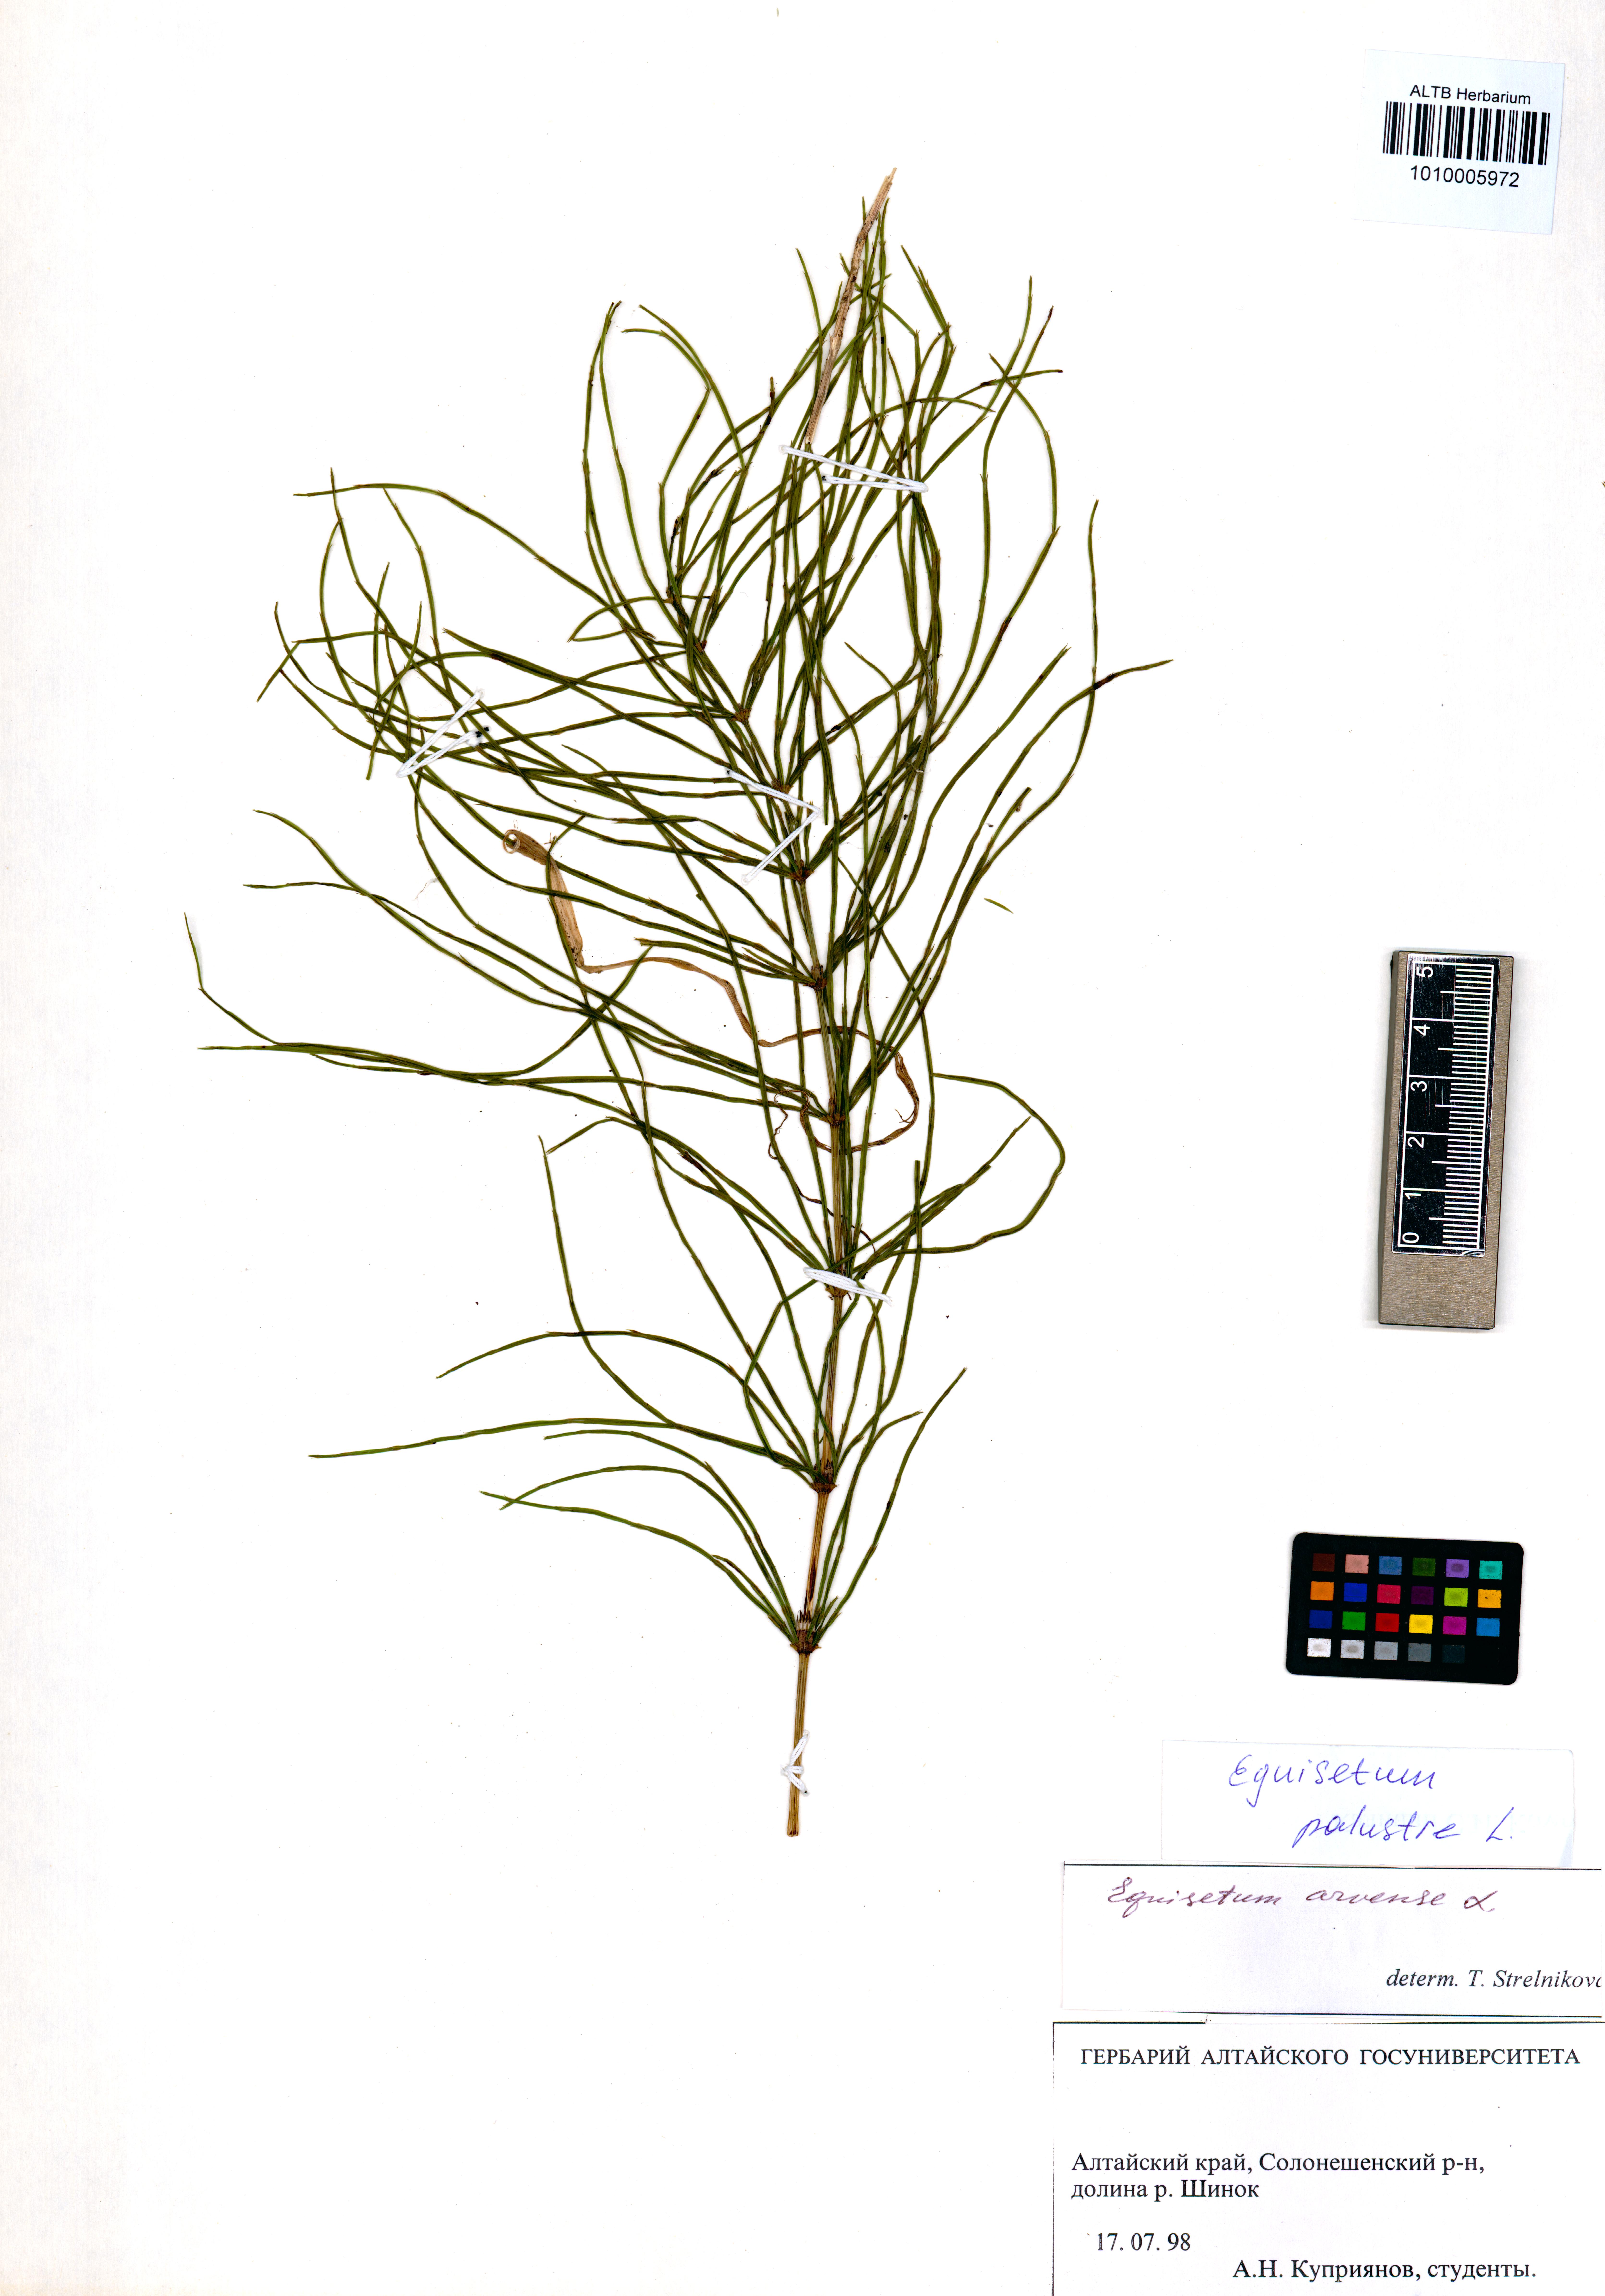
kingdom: Plantae
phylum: Tracheophyta
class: Polypodiopsida
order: Equisetales
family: Equisetaceae
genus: Equisetum
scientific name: Equisetum palustre
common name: Marsh horsetail
